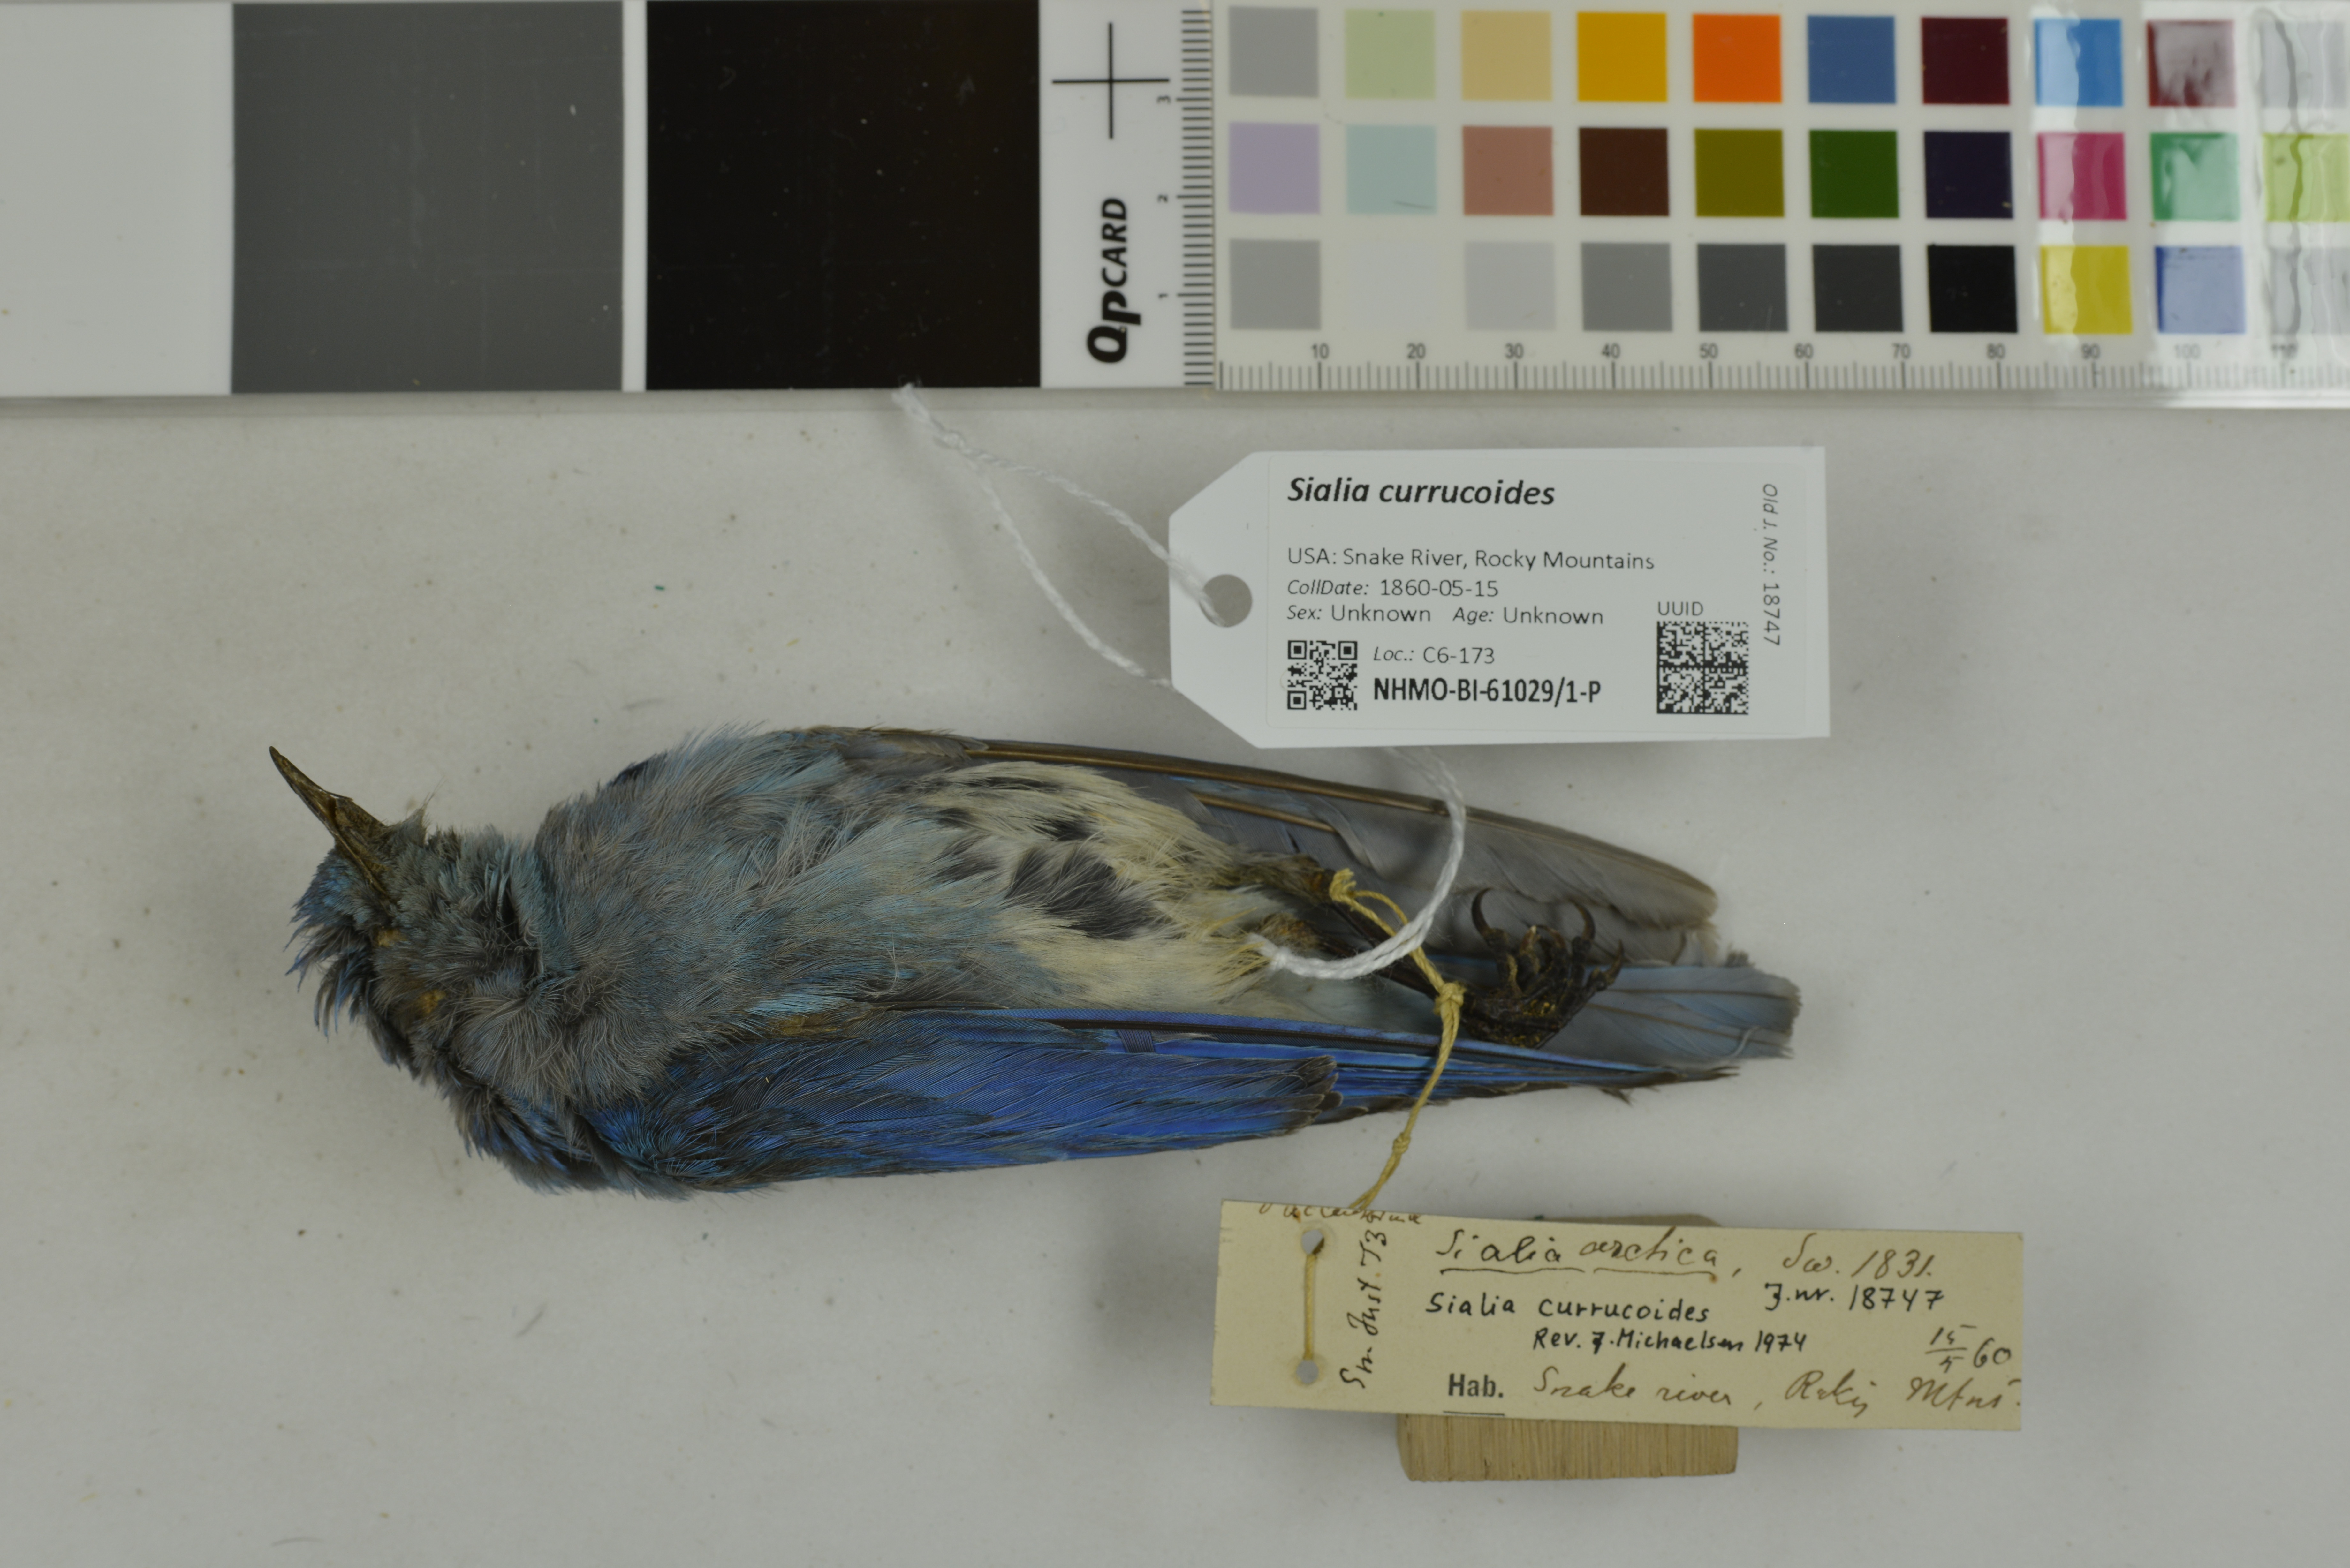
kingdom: Animalia
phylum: Chordata
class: Aves
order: Passeriformes
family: Turdidae
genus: Sialia
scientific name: Sialia currucoides
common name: Mountain bluebird
